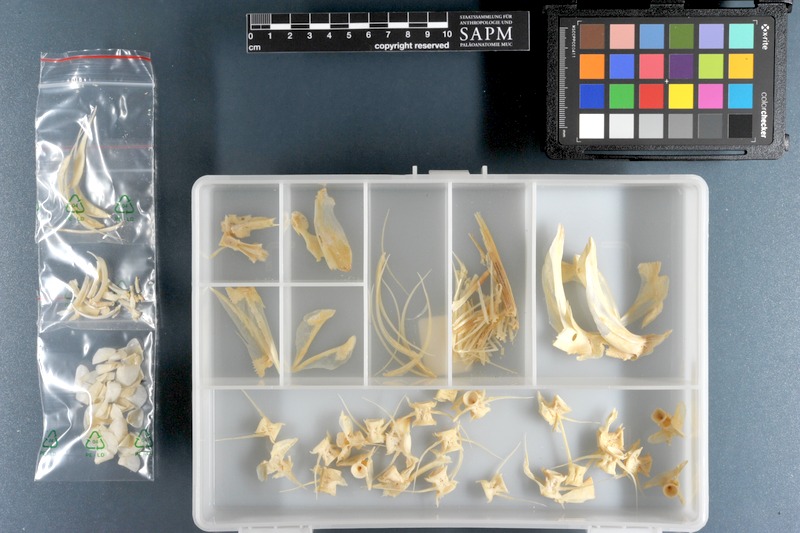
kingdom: Animalia
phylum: Chordata
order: Mugiliformes
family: Mugilidae
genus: Planiliza
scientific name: Planiliza macrolepis
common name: Largescale mullet
